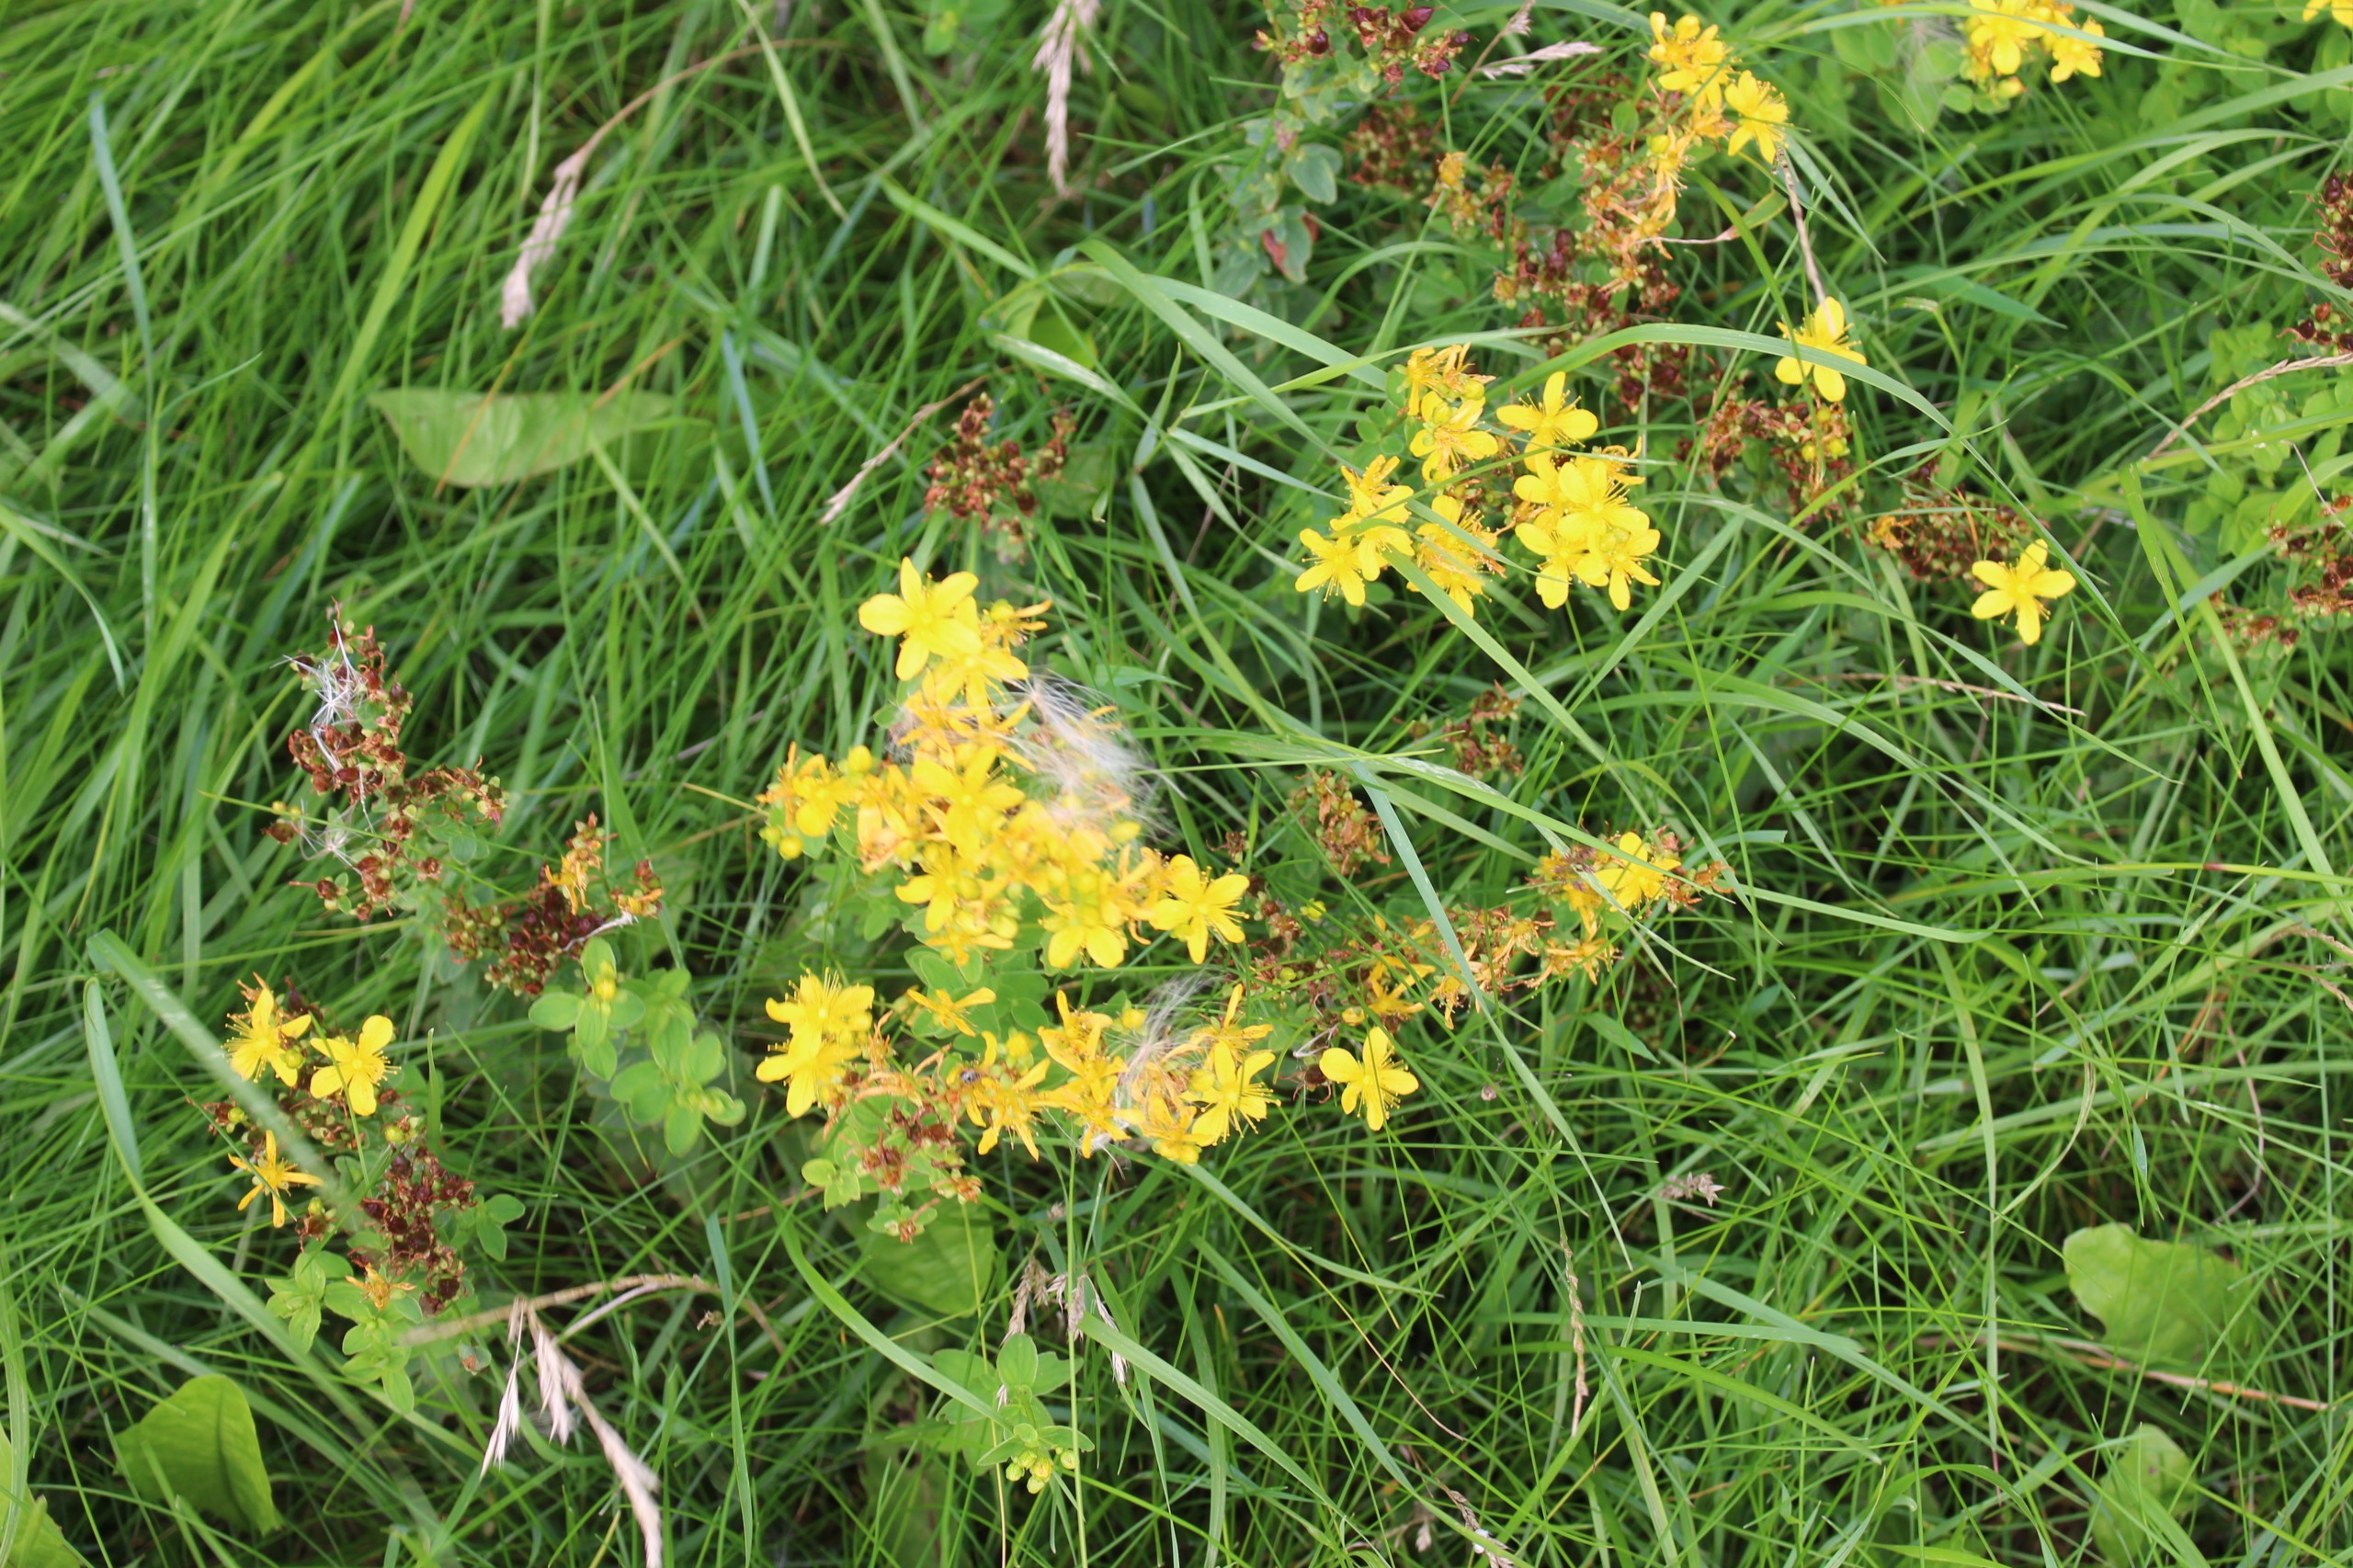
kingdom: Plantae
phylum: Tracheophyta
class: Magnoliopsida
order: Malpighiales
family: Hypericaceae
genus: Hypericum
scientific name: Hypericum maculatum
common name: Kantet perikon
